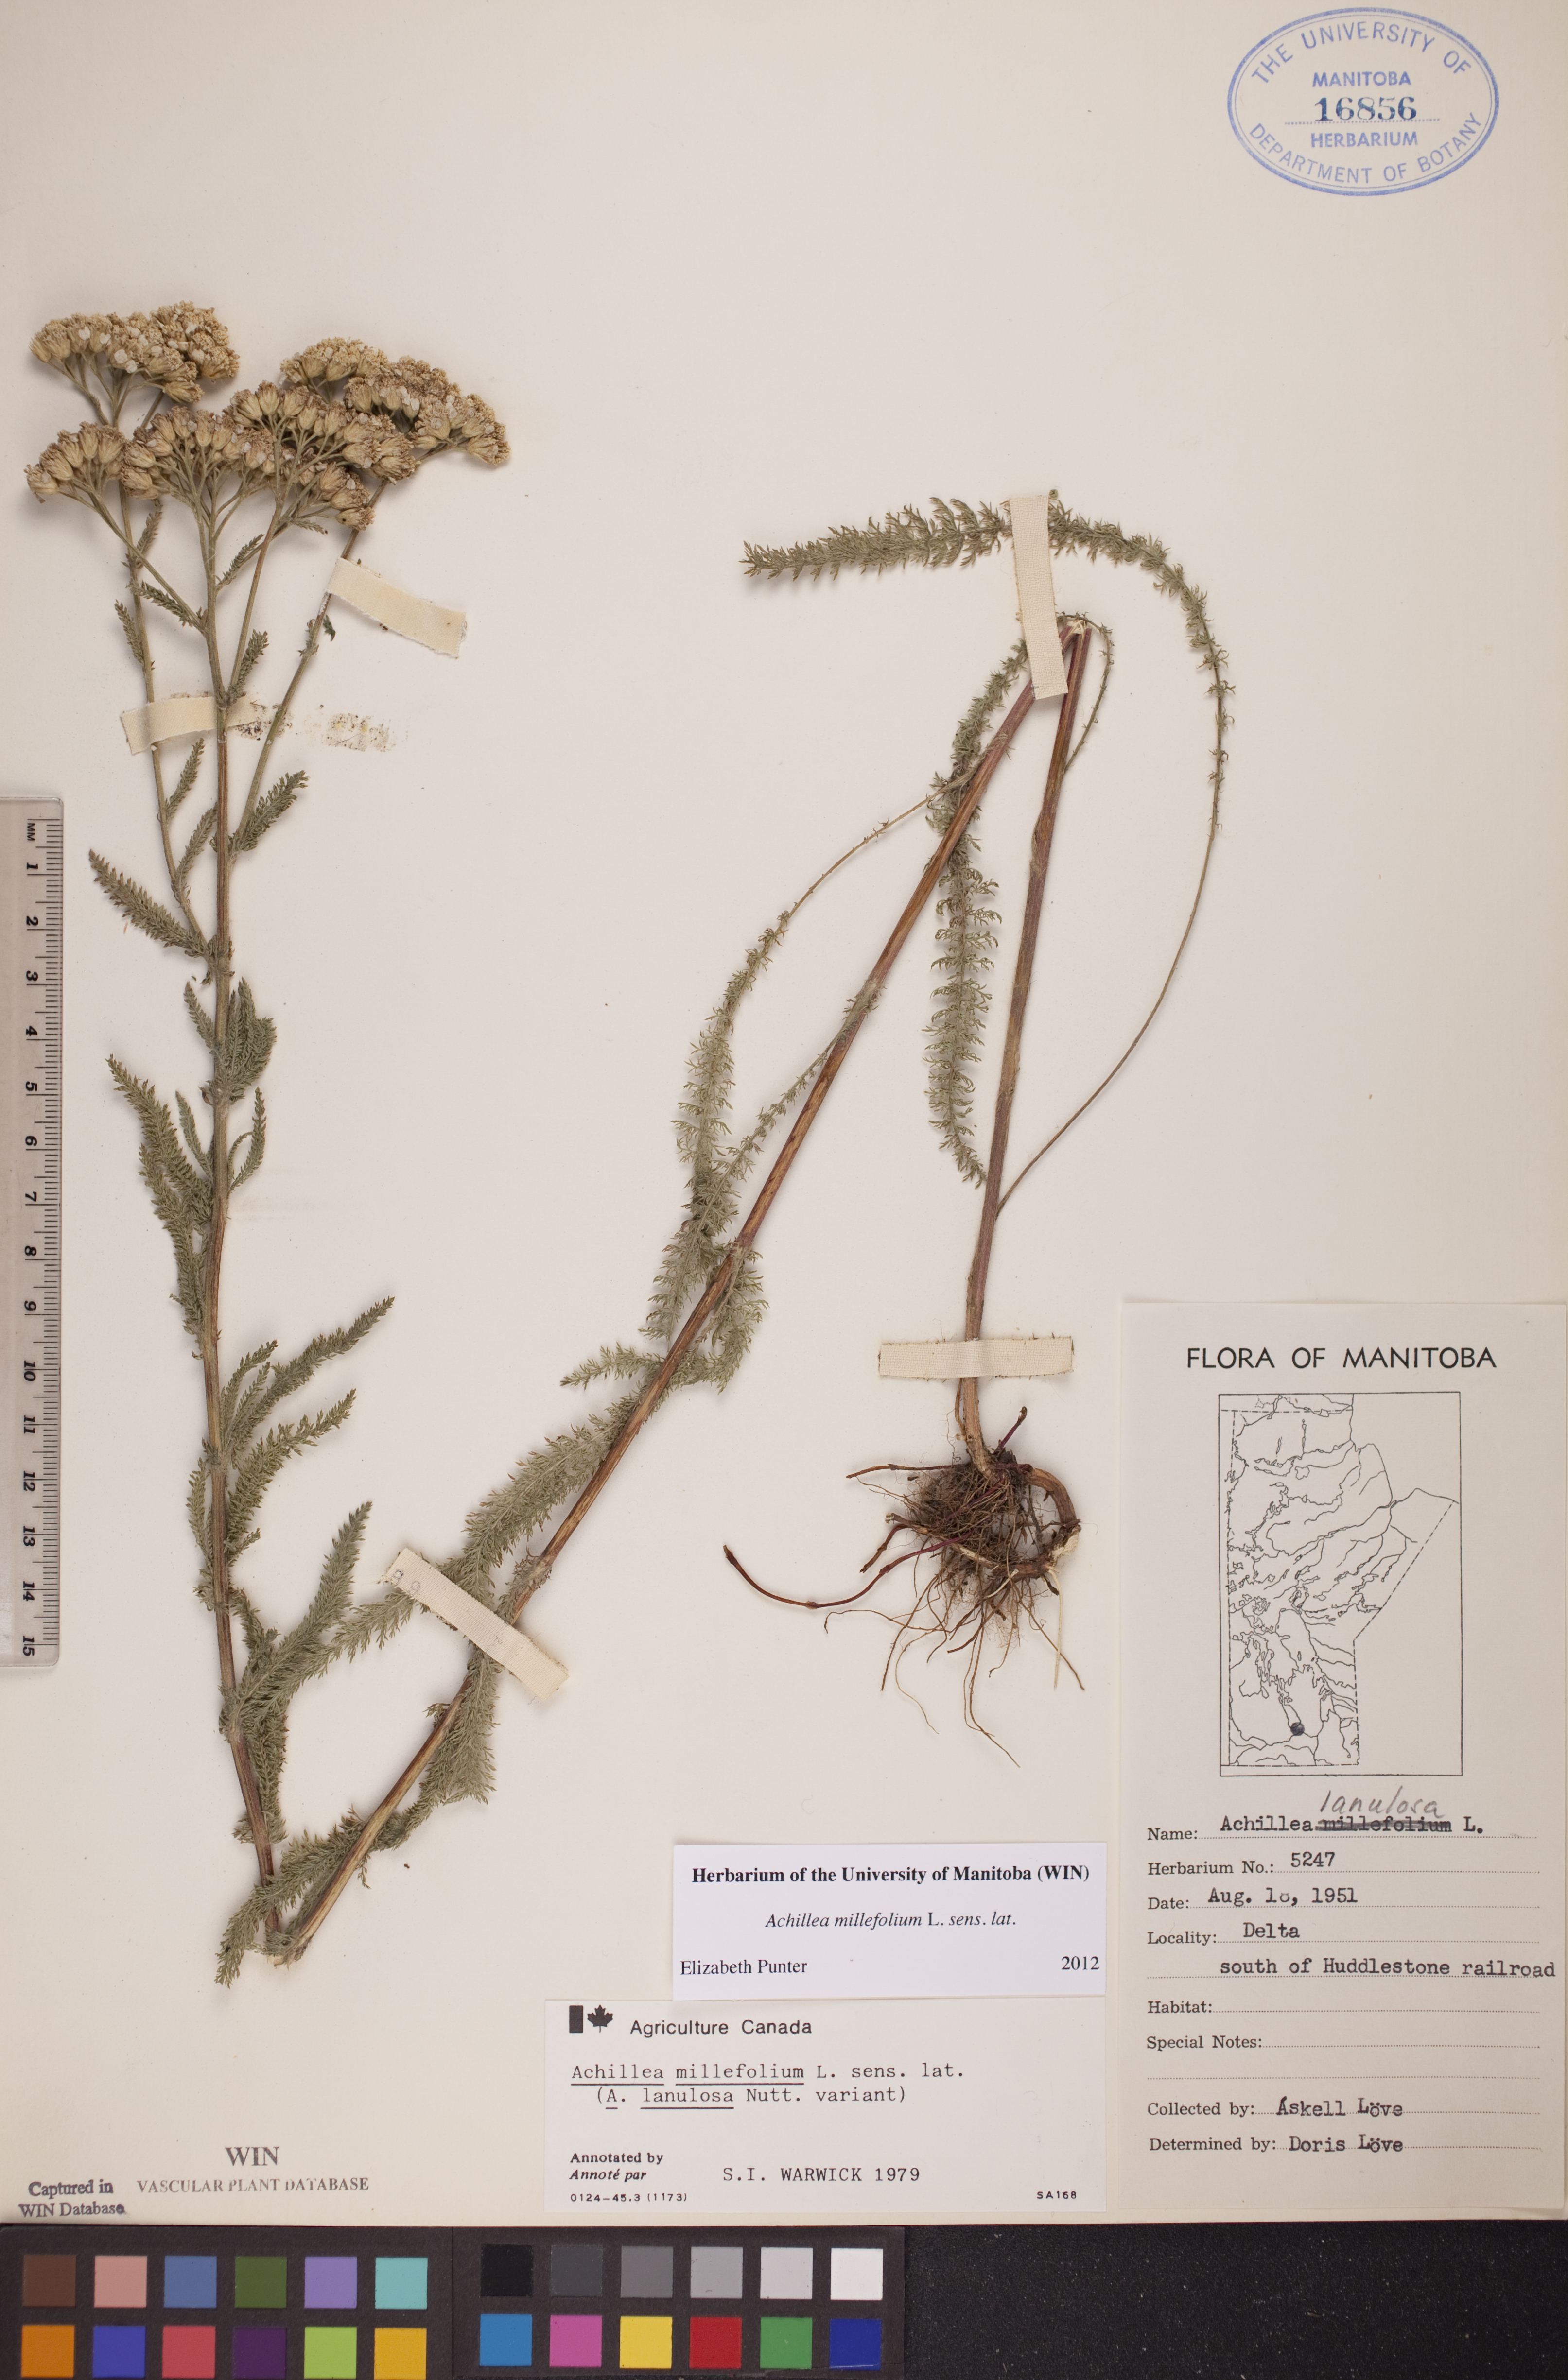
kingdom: Plantae
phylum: Tracheophyta
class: Magnoliopsida
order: Asterales
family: Asteraceae
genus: Achillea
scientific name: Achillea millefolium
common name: Yarrow
